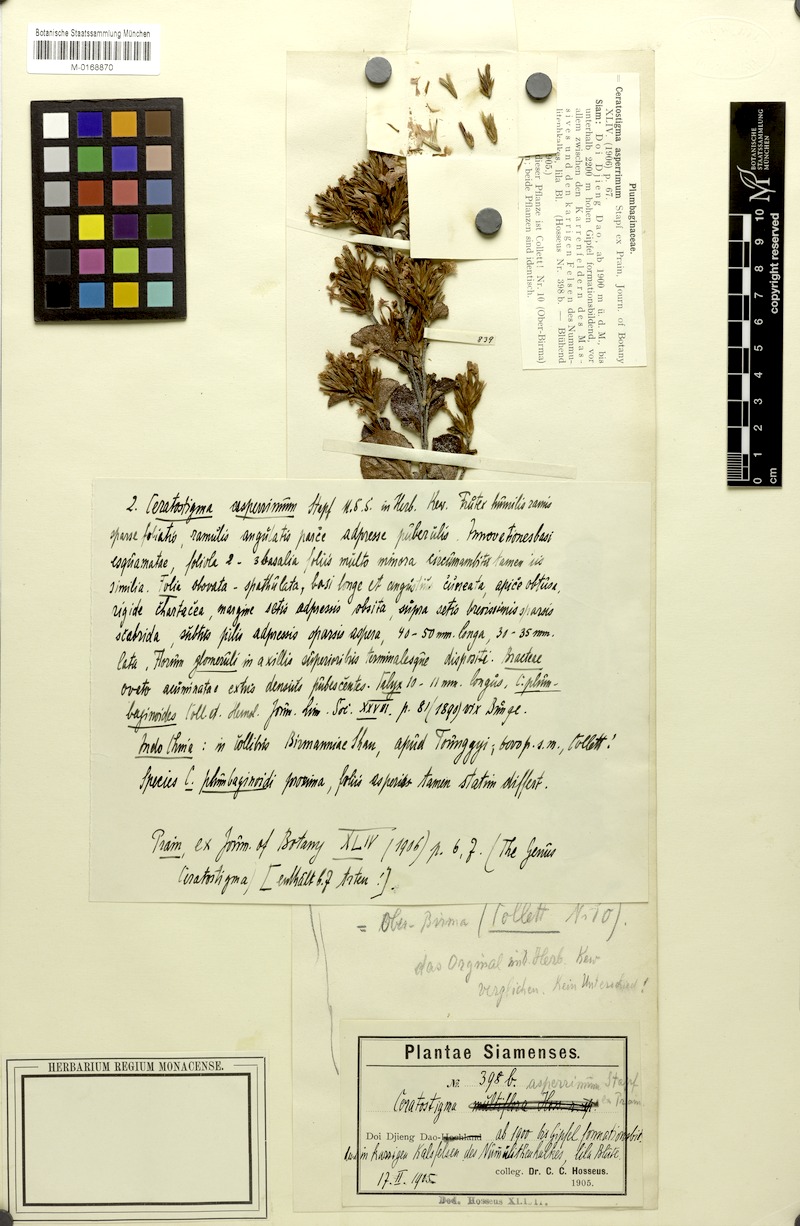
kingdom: Plantae
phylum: Tracheophyta
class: Magnoliopsida
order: Caryophyllales
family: Plumbaginaceae
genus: Ceratostigma
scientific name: Ceratostigma asperrimum
